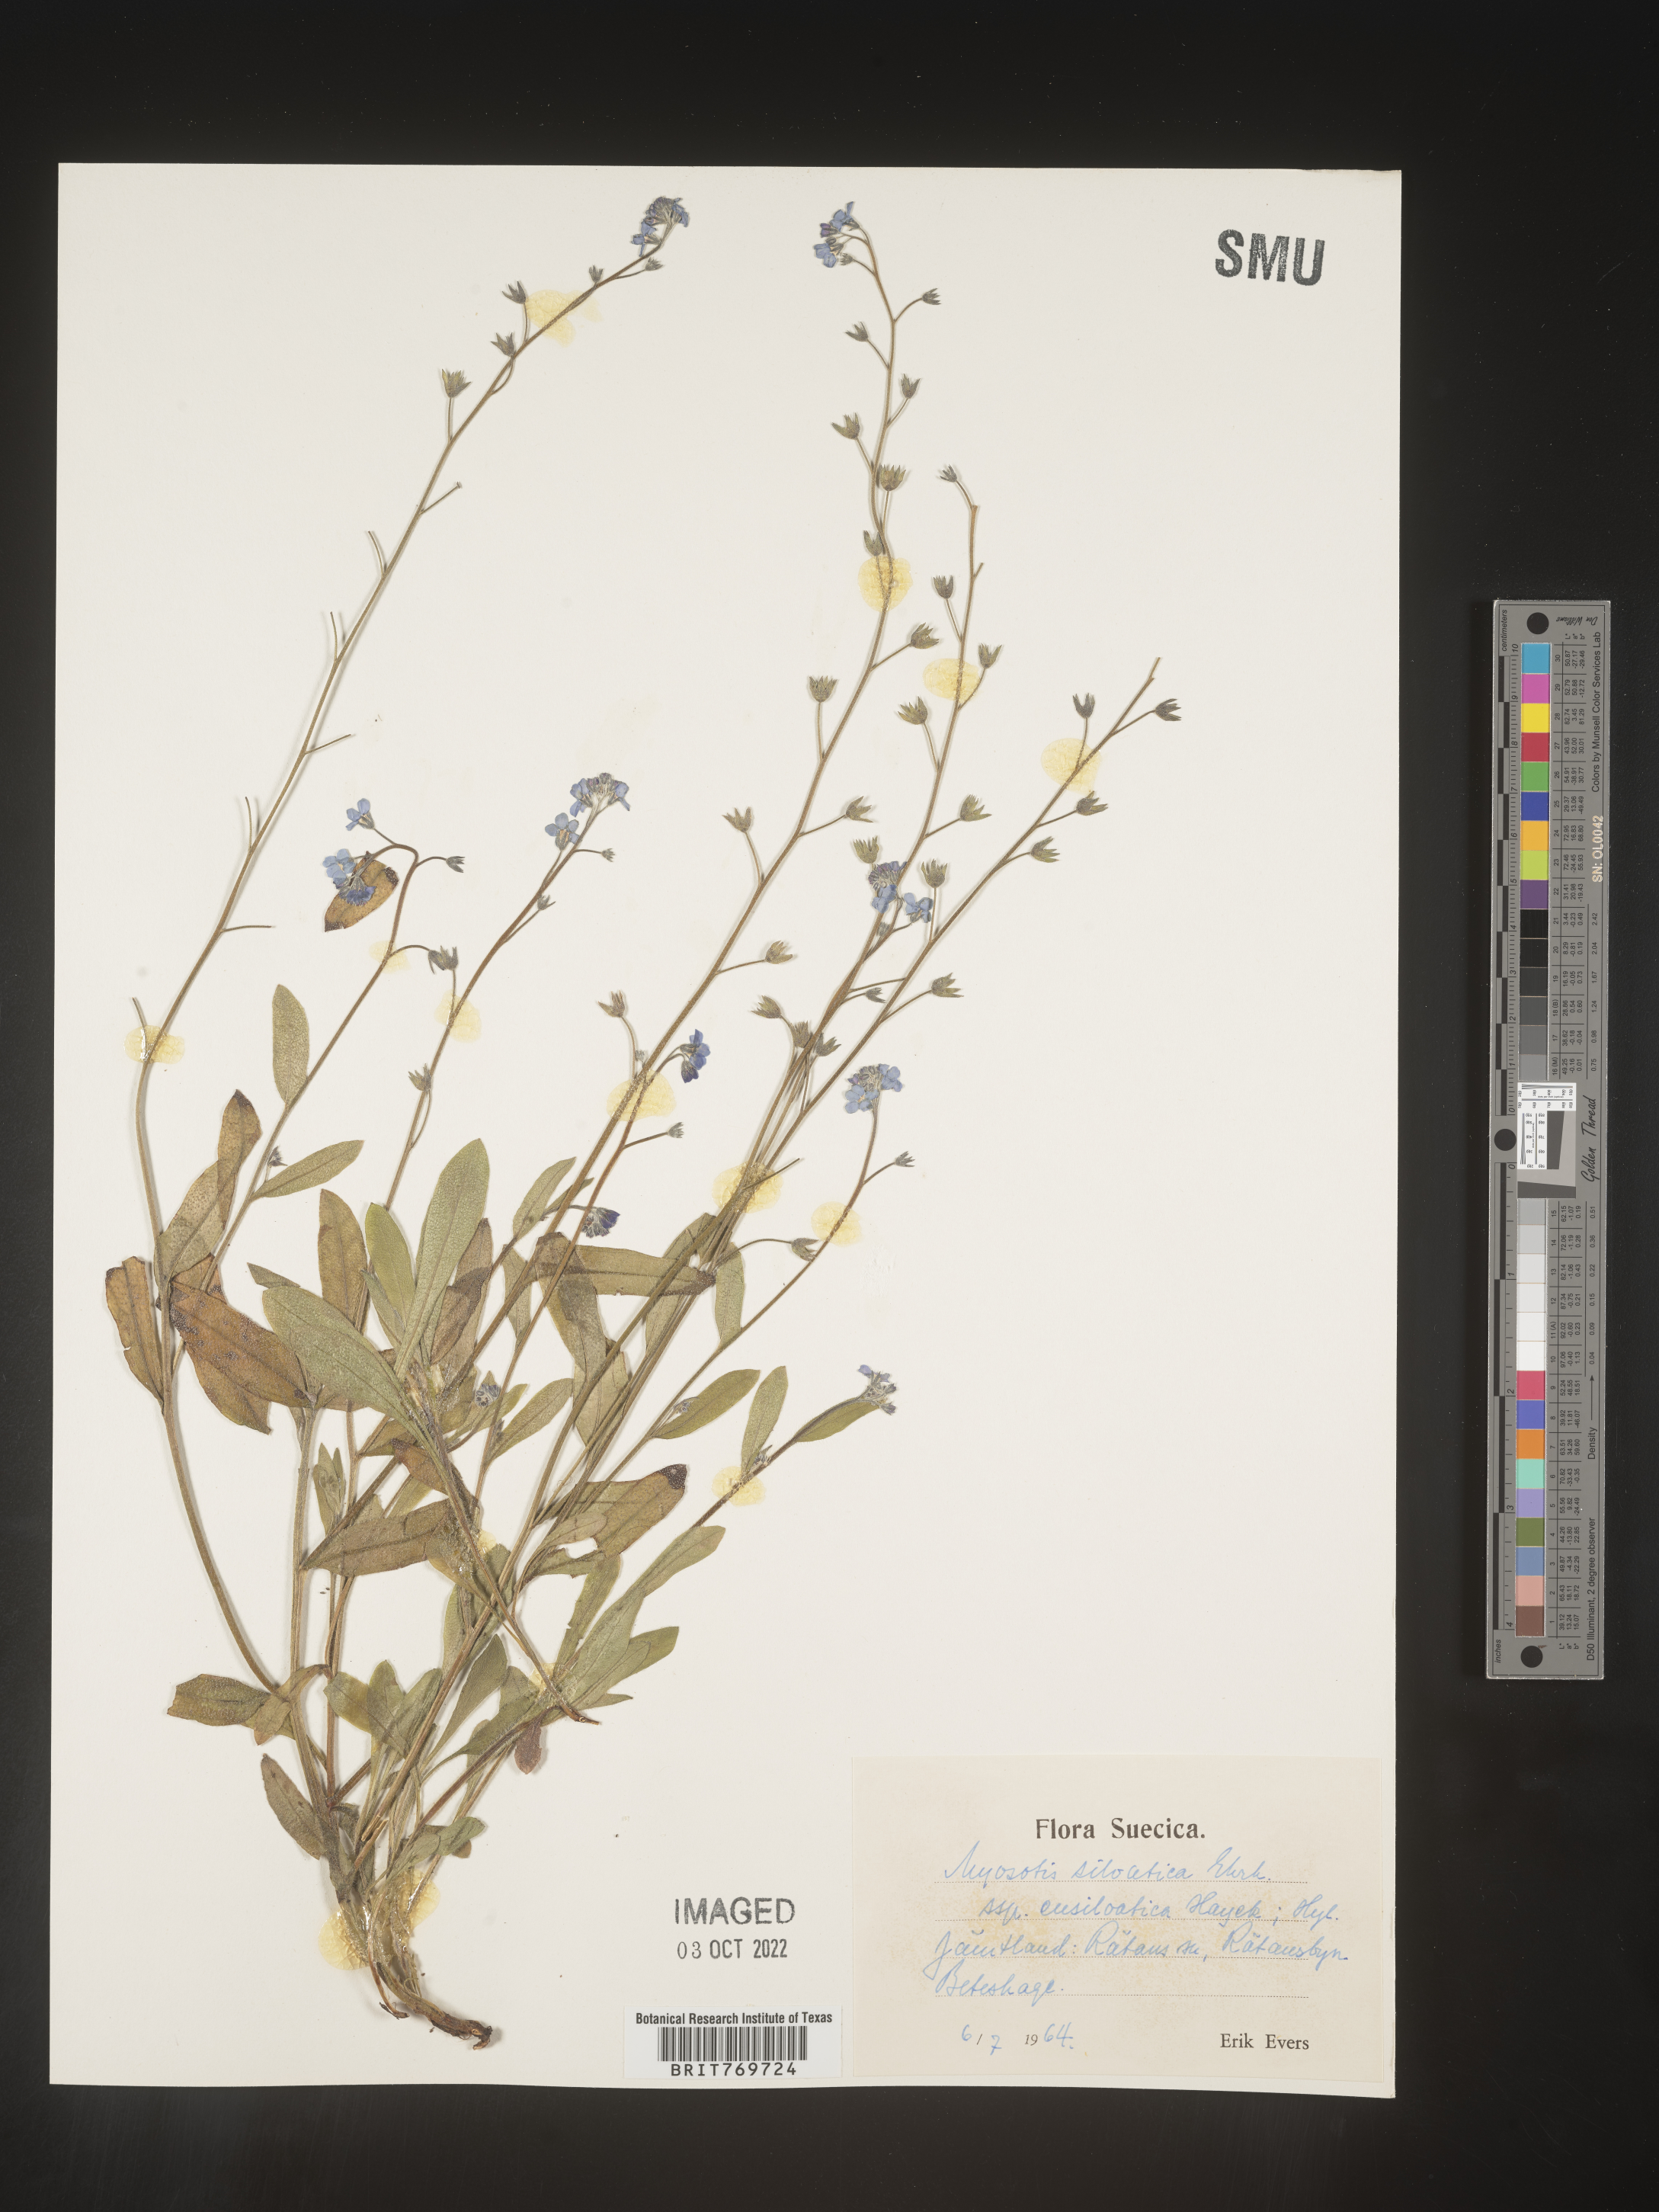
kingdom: Plantae
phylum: Tracheophyta
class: Magnoliopsida
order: Boraginales
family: Boraginaceae
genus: Myosotis
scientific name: Myosotis
